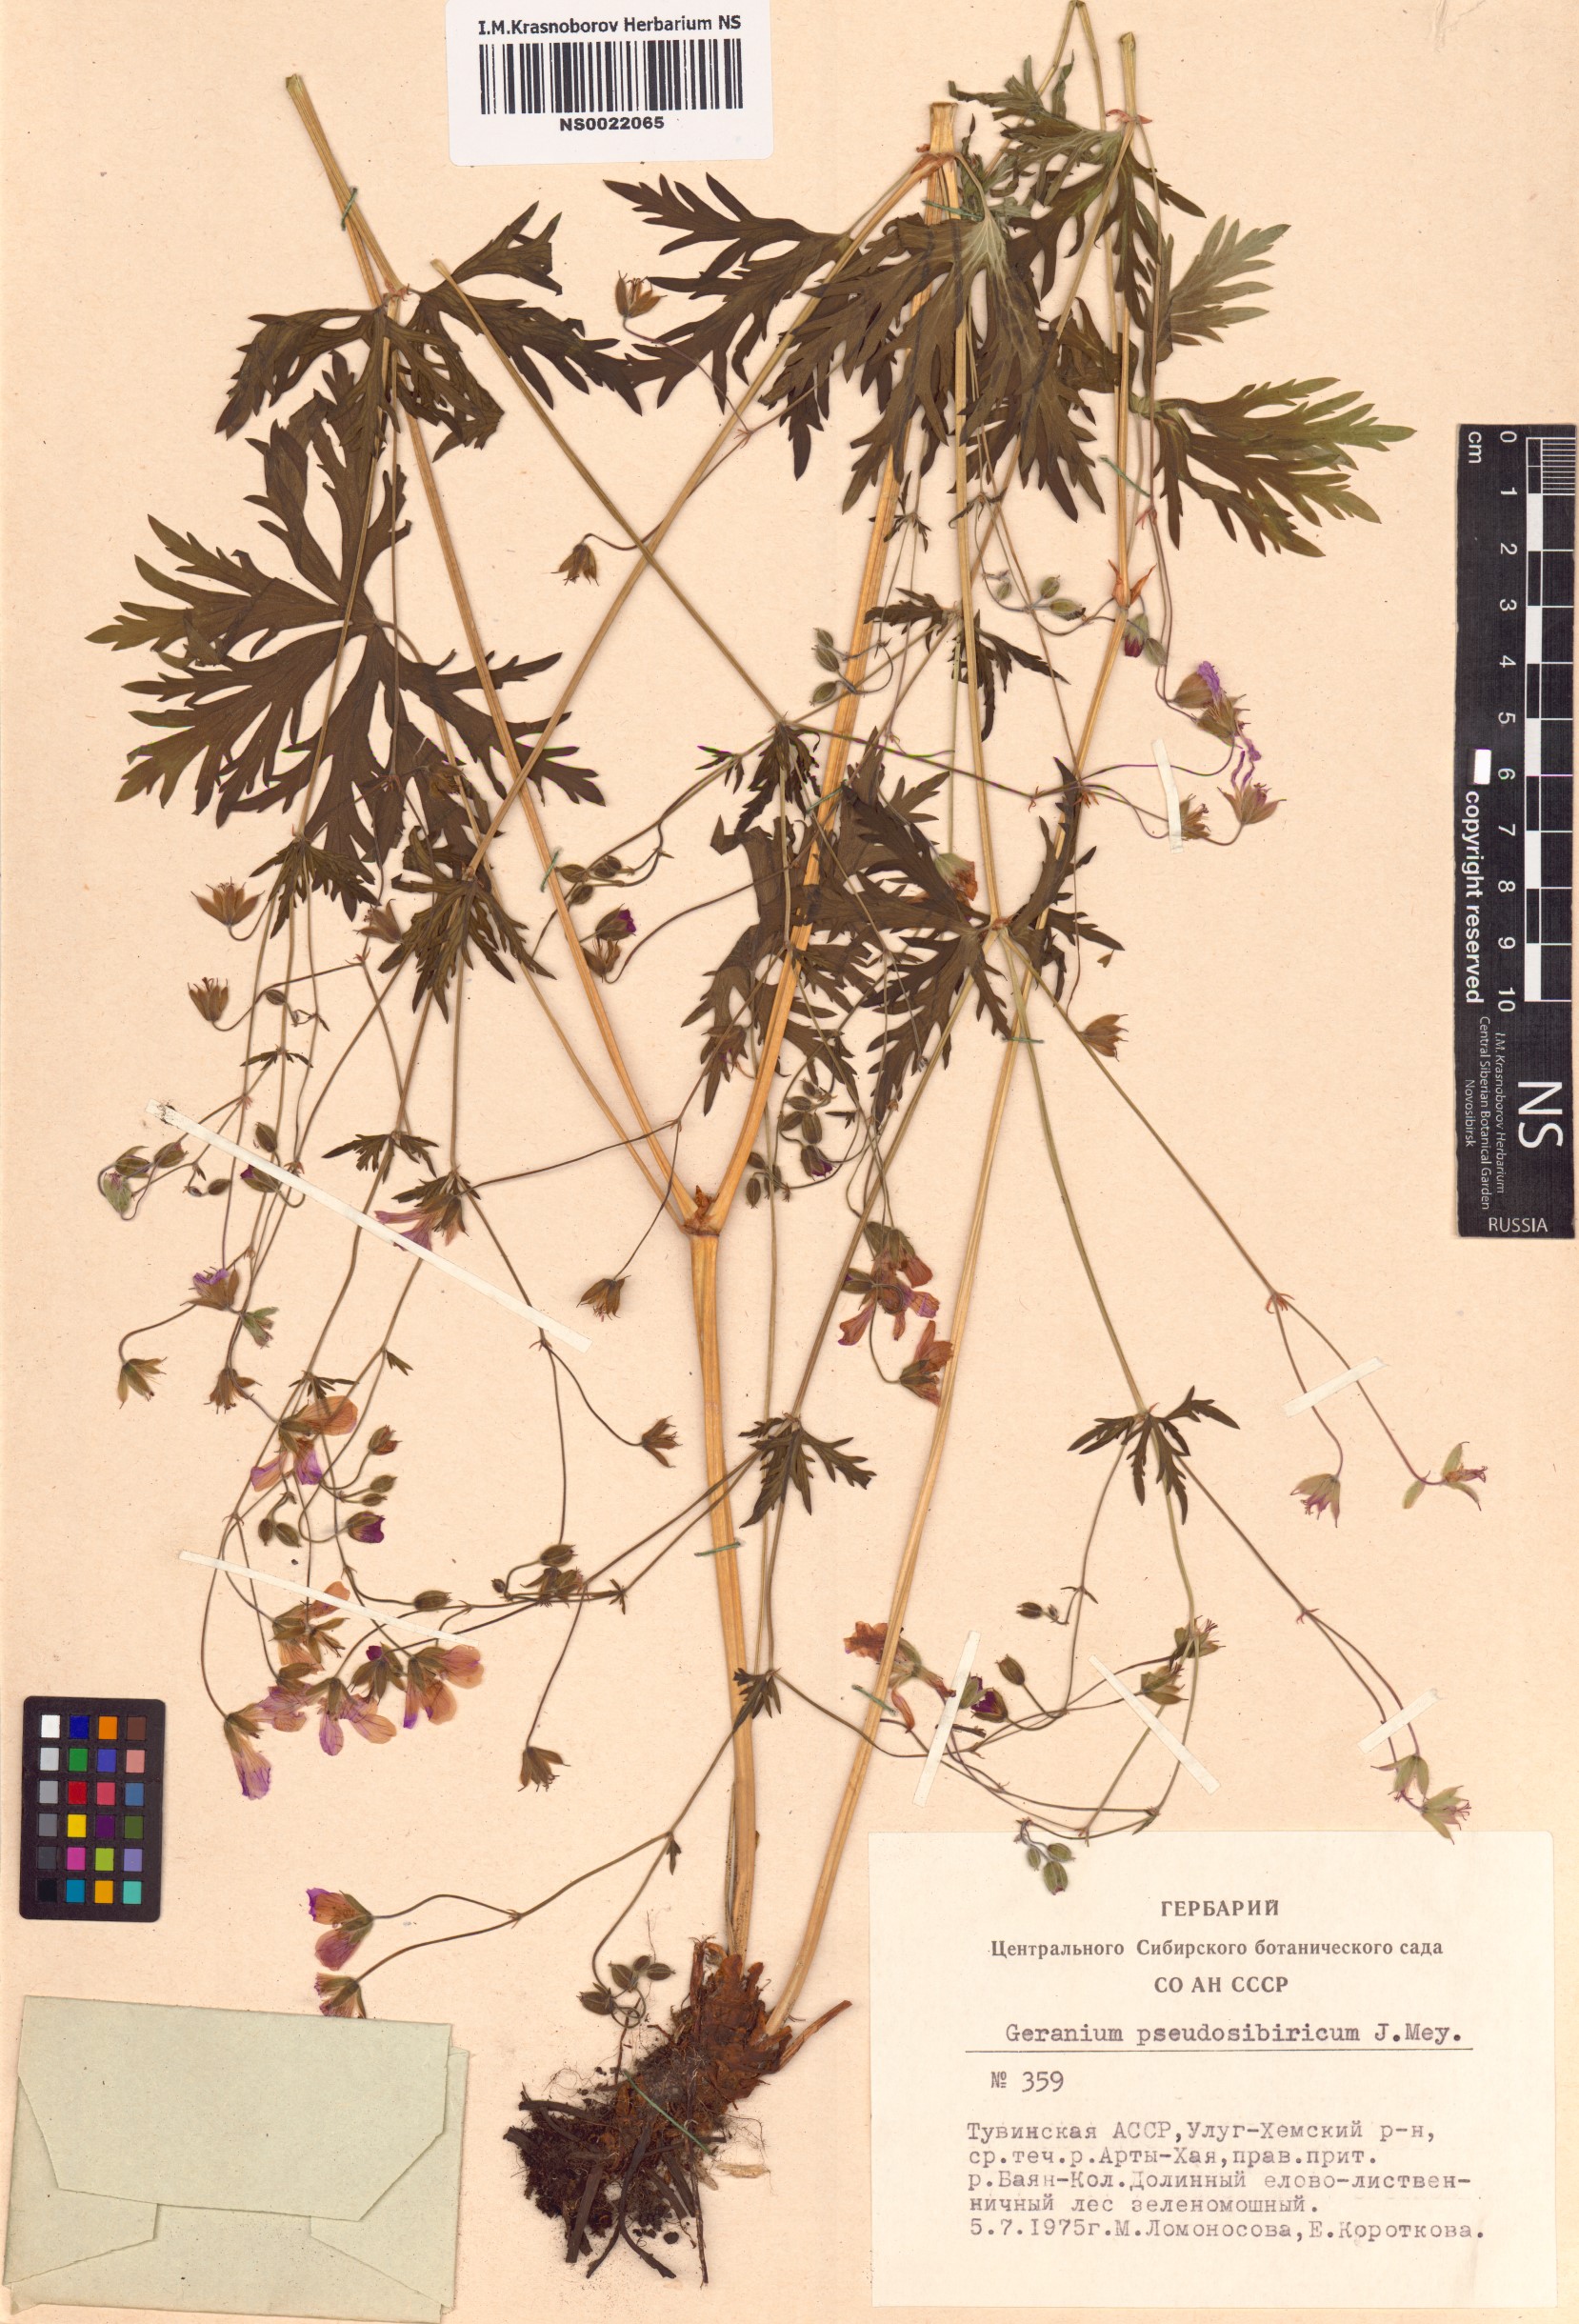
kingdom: Plantae
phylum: Tracheophyta
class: Magnoliopsida
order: Geraniales
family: Geraniaceae
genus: Geranium
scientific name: Geranium pseudosibiricum
